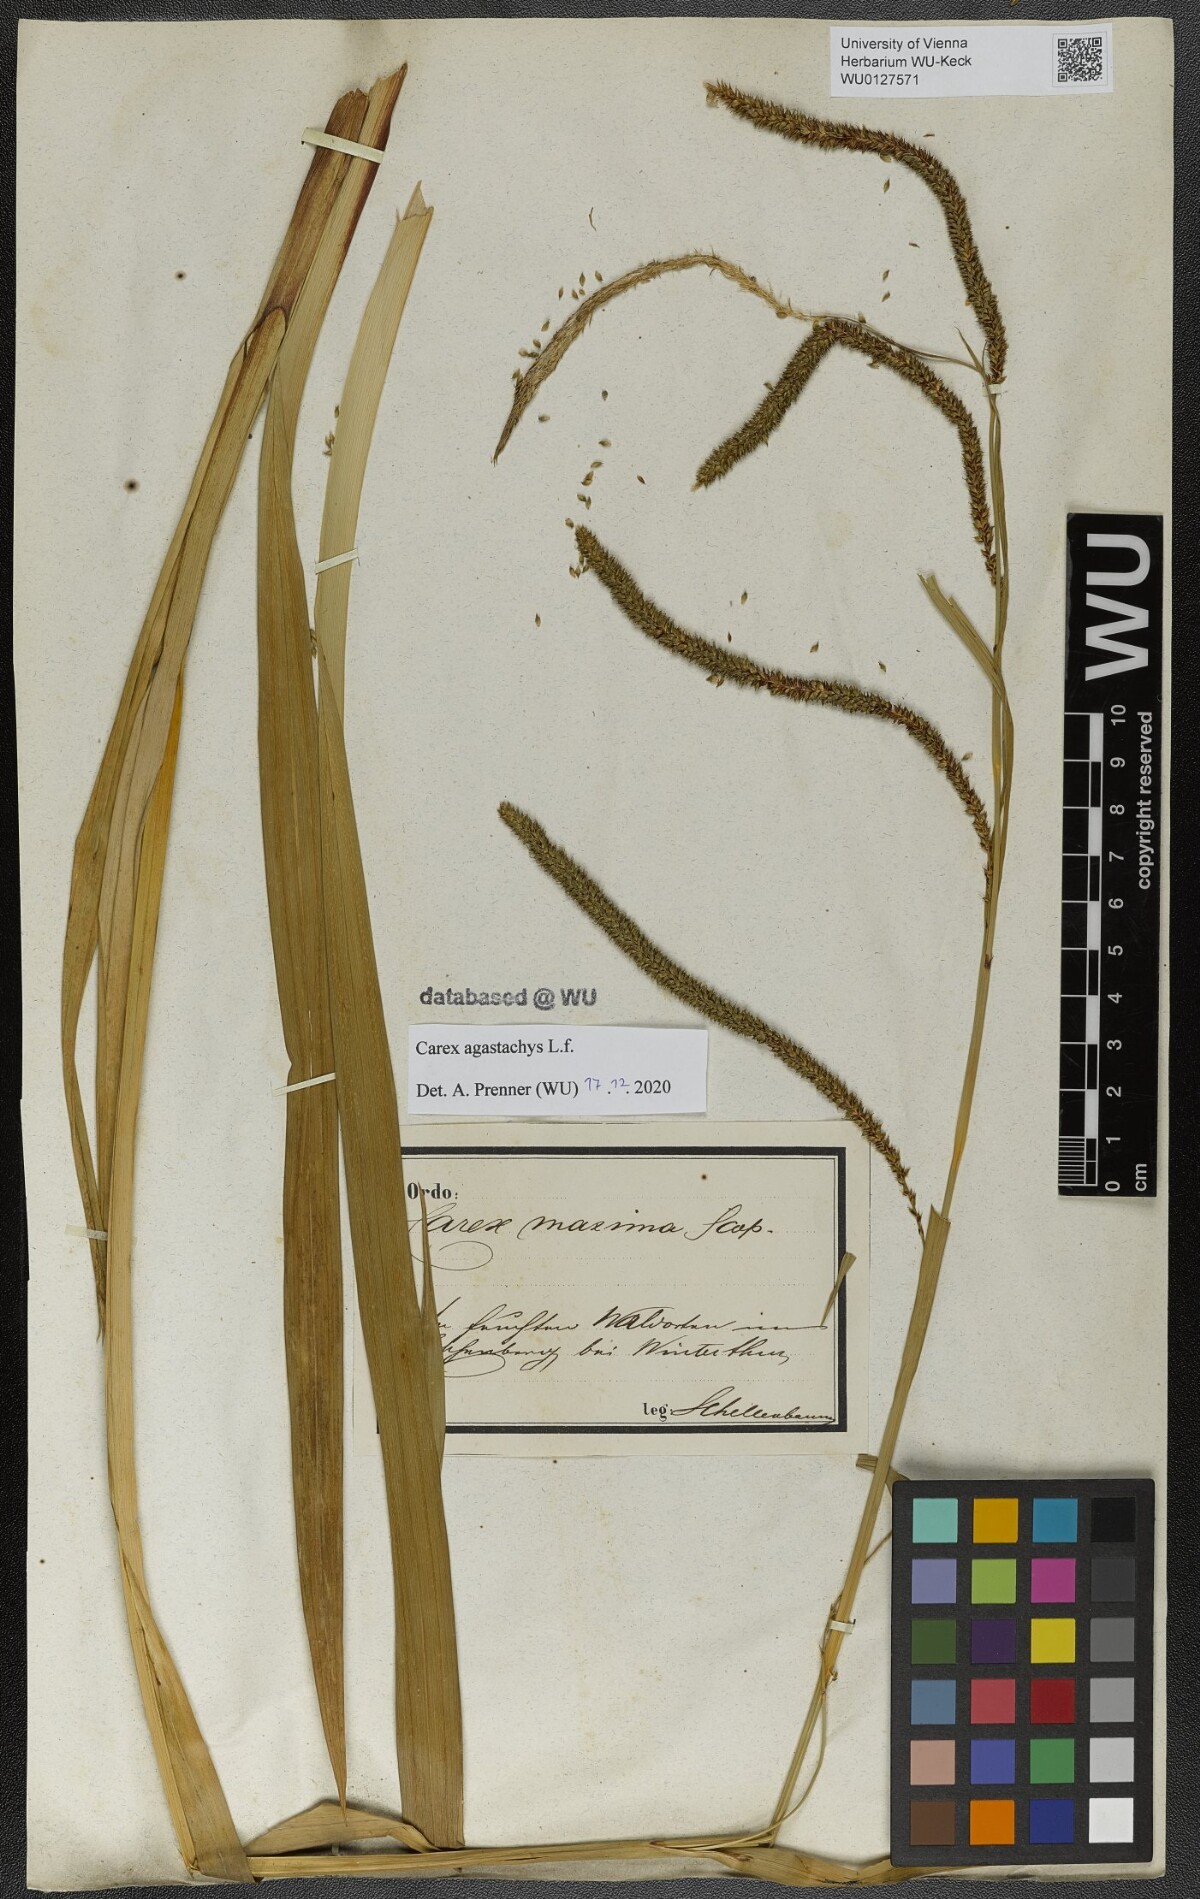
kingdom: Plantae
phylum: Tracheophyta
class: Liliopsida
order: Poales
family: Cyperaceae
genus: Carex
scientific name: Carex agastachys
